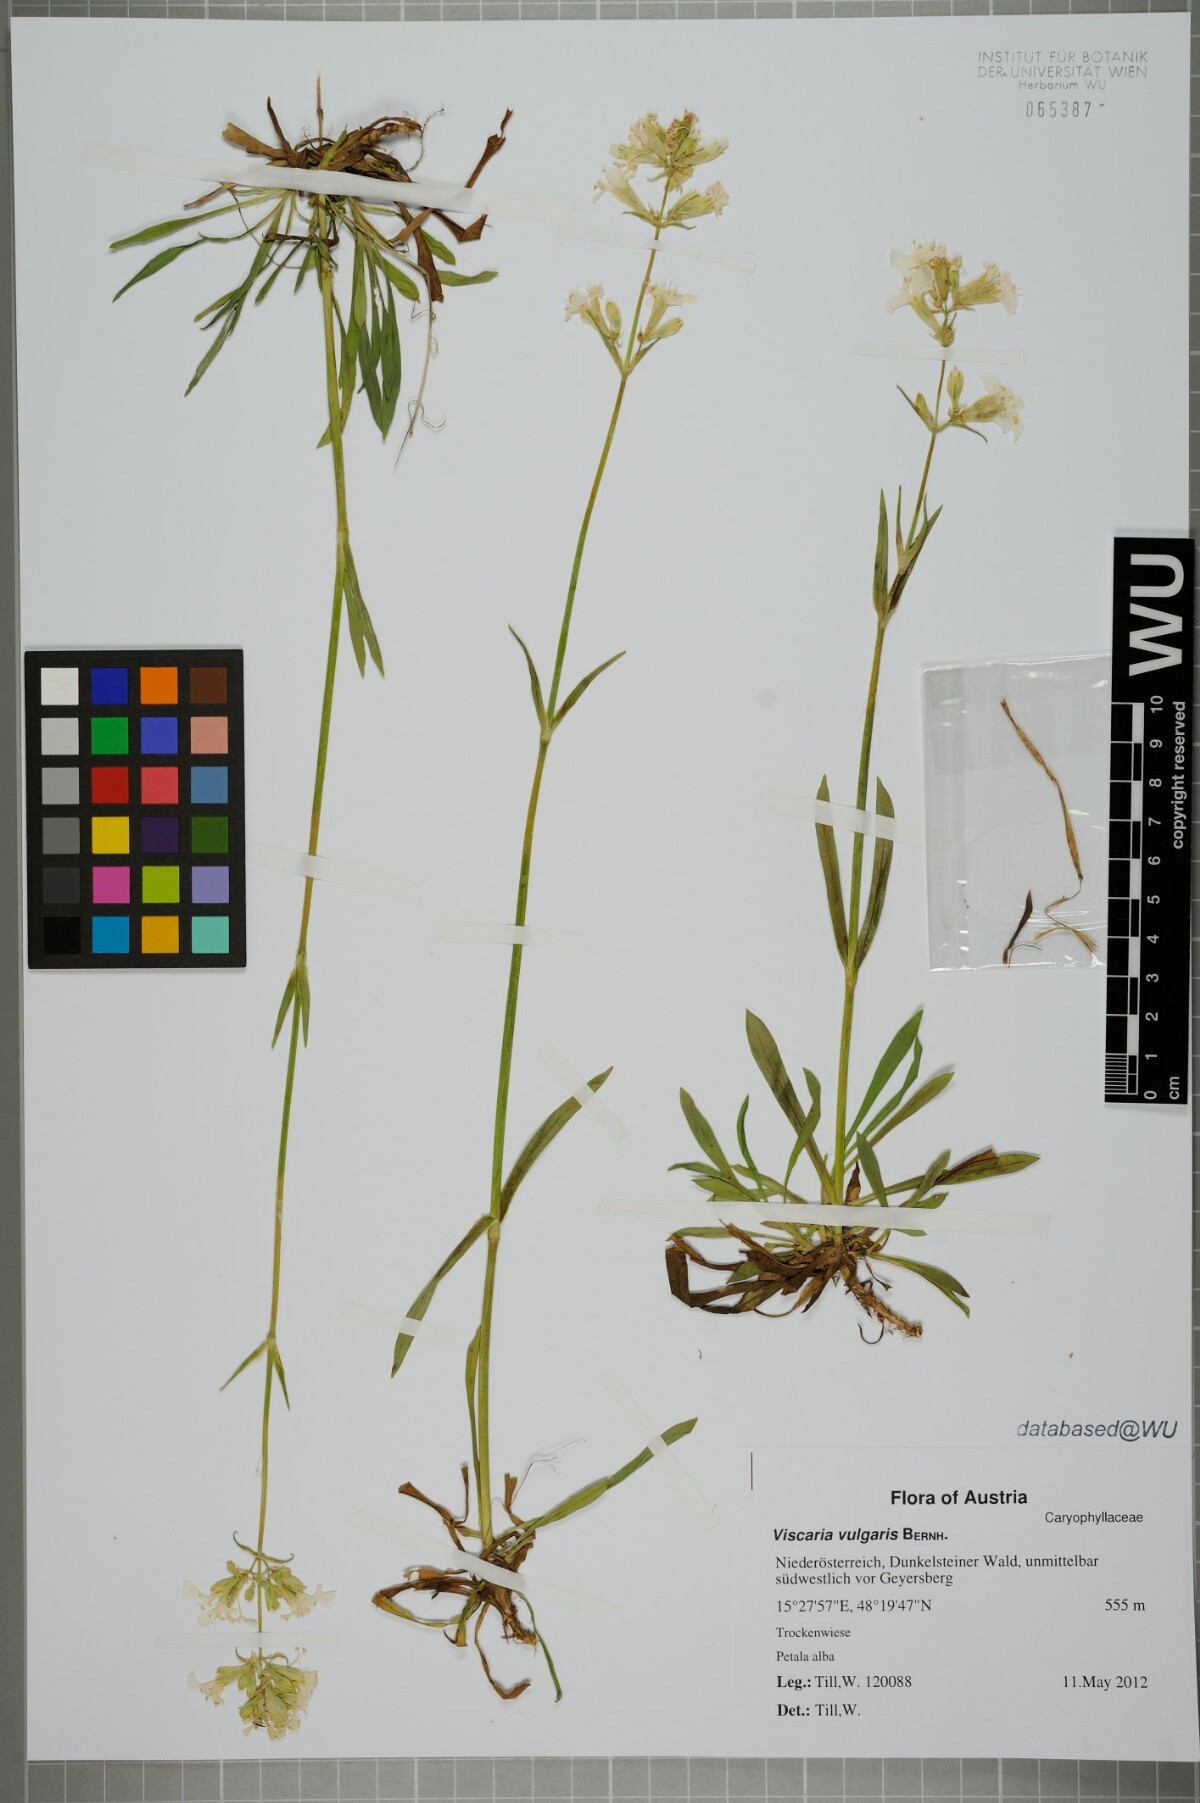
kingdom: Plantae
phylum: Tracheophyta
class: Magnoliopsida
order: Caryophyllales
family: Caryophyllaceae
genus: Viscaria
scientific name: Viscaria vulgaris
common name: Clammy campion
